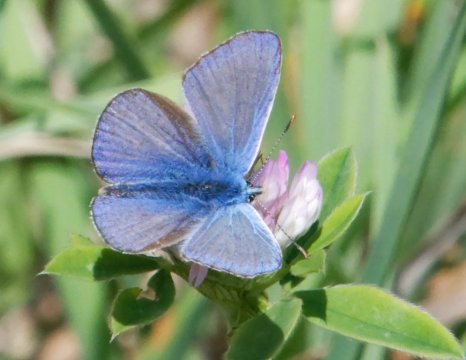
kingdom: Animalia
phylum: Arthropoda
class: Insecta
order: Lepidoptera
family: Lycaenidae
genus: Polyommatus
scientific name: Polyommatus icarus
